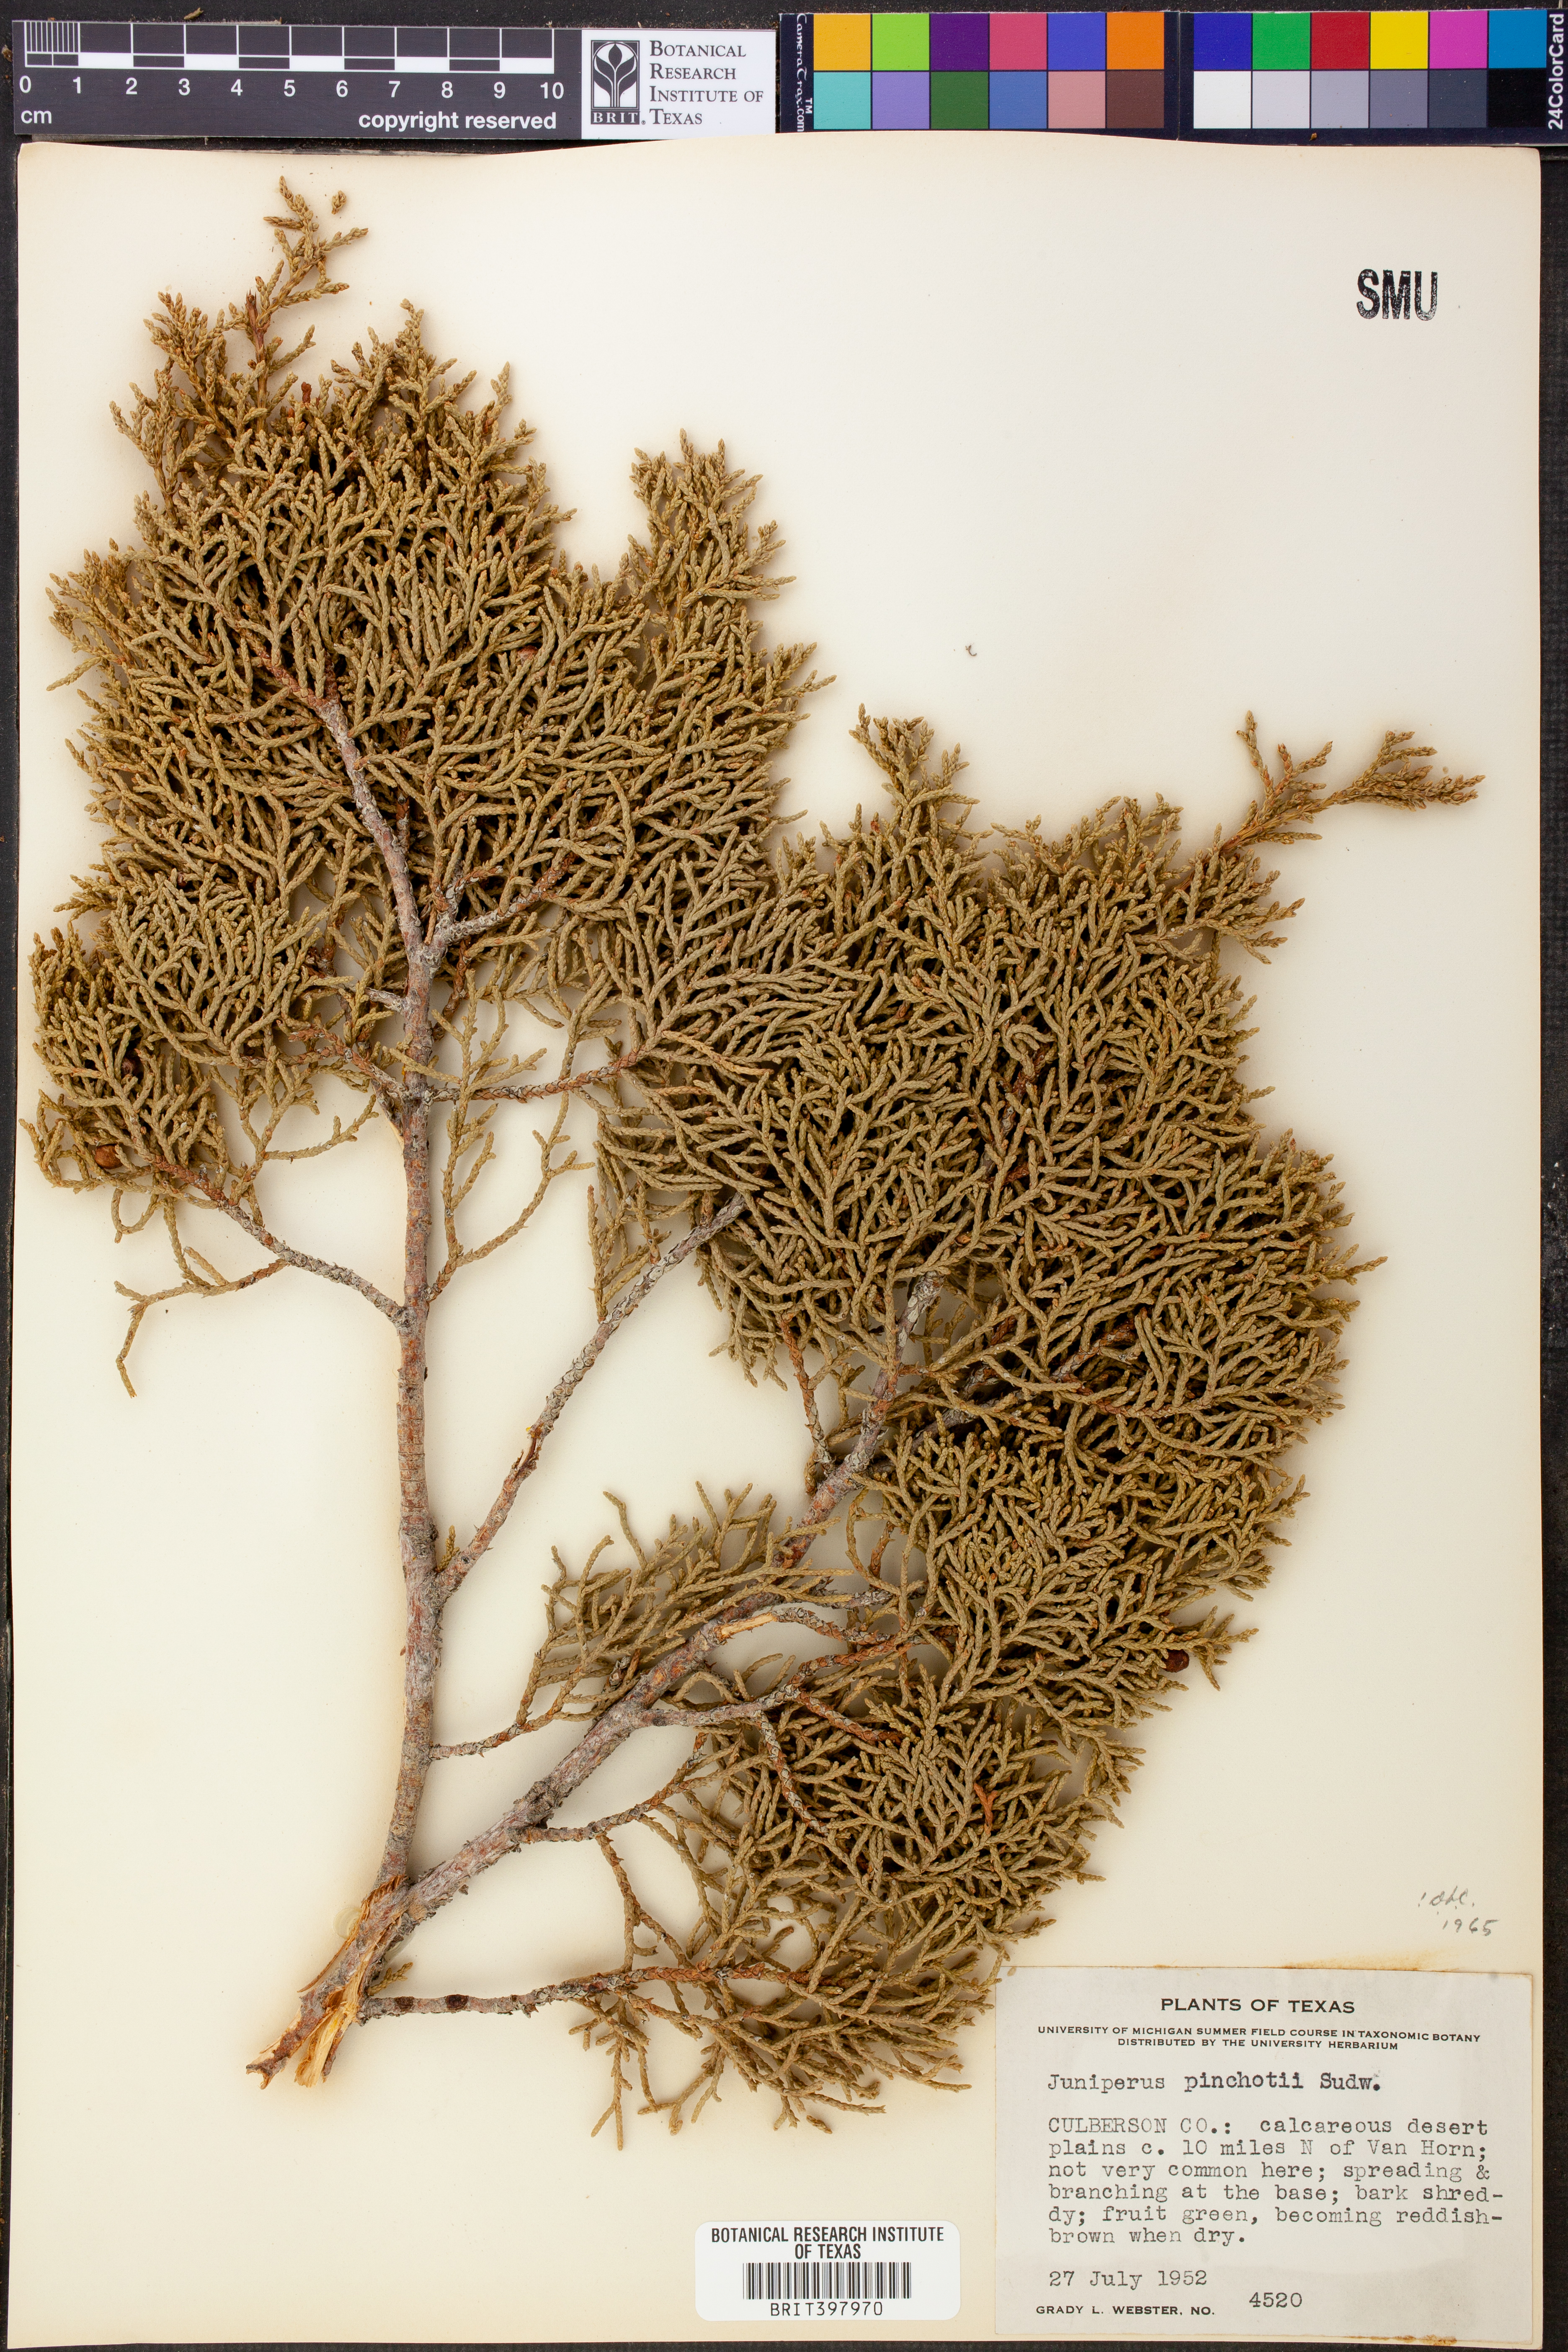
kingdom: Plantae
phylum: Tracheophyta
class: Pinopsida
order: Pinales
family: Cupressaceae
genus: Juniperus
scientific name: Juniperus pinchotii
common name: Pinchot juniper
